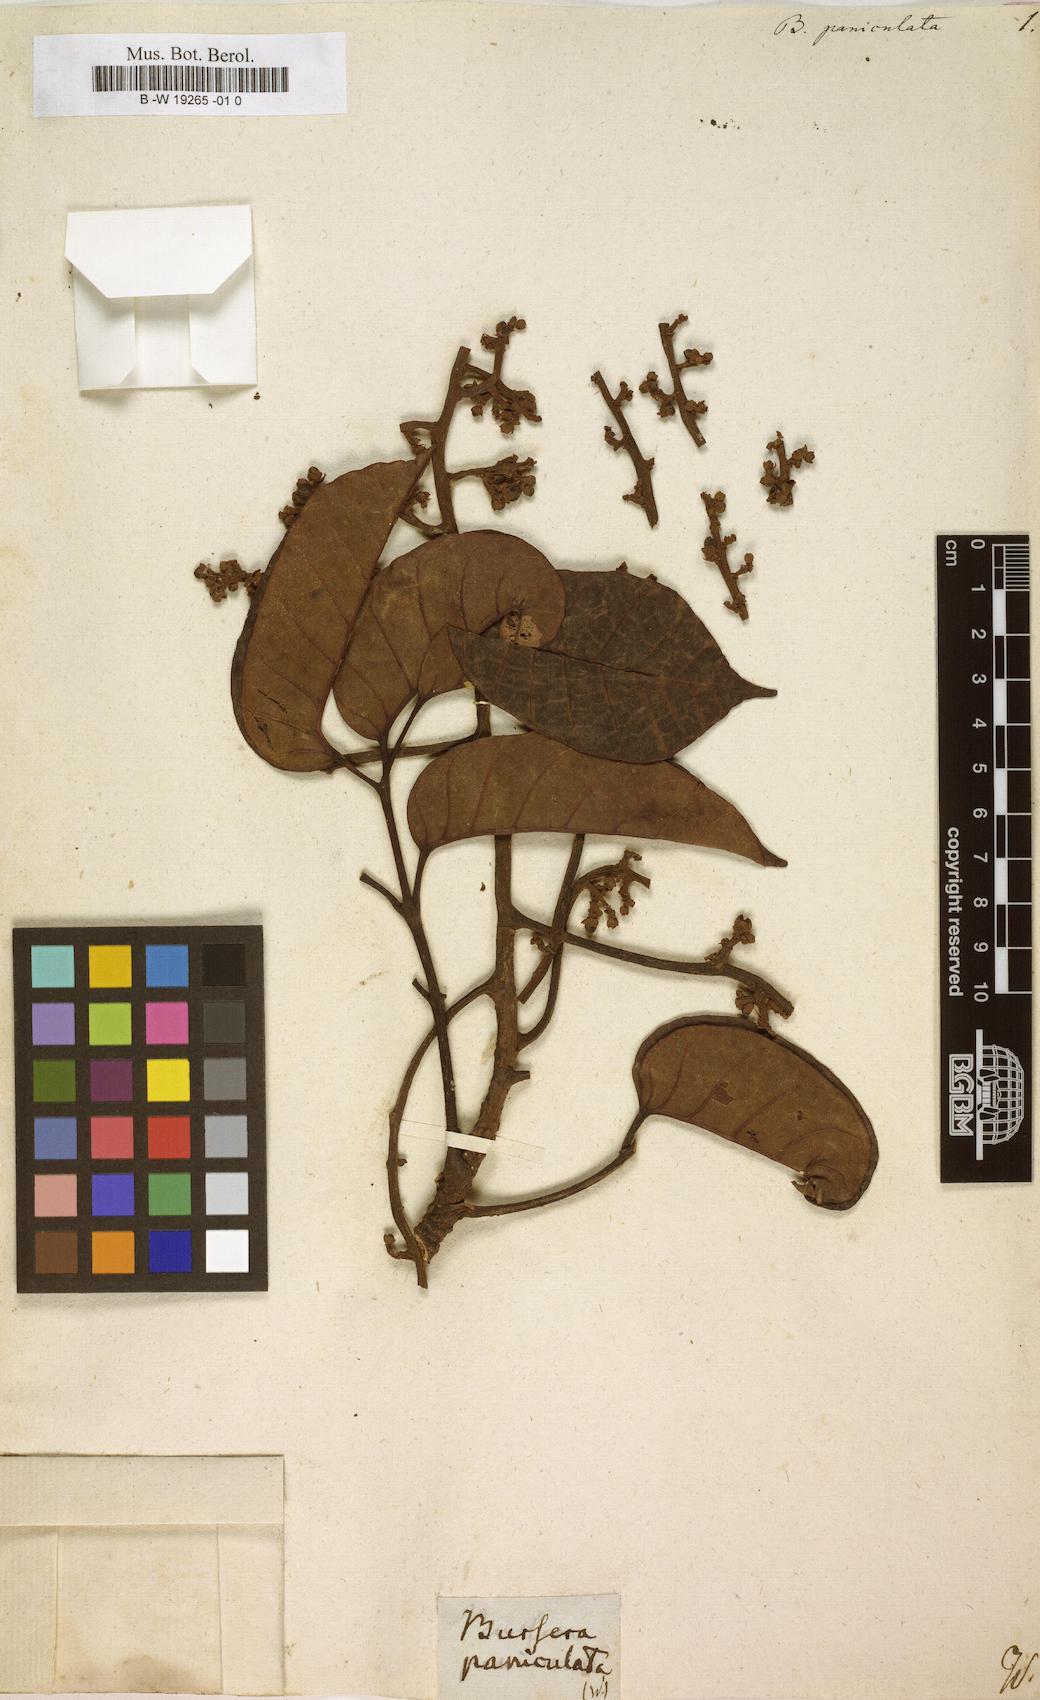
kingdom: Plantae
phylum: Tracheophyta
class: Magnoliopsida
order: Sapindales
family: Burseraceae
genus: Canarium
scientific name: Canarium paniculatum
